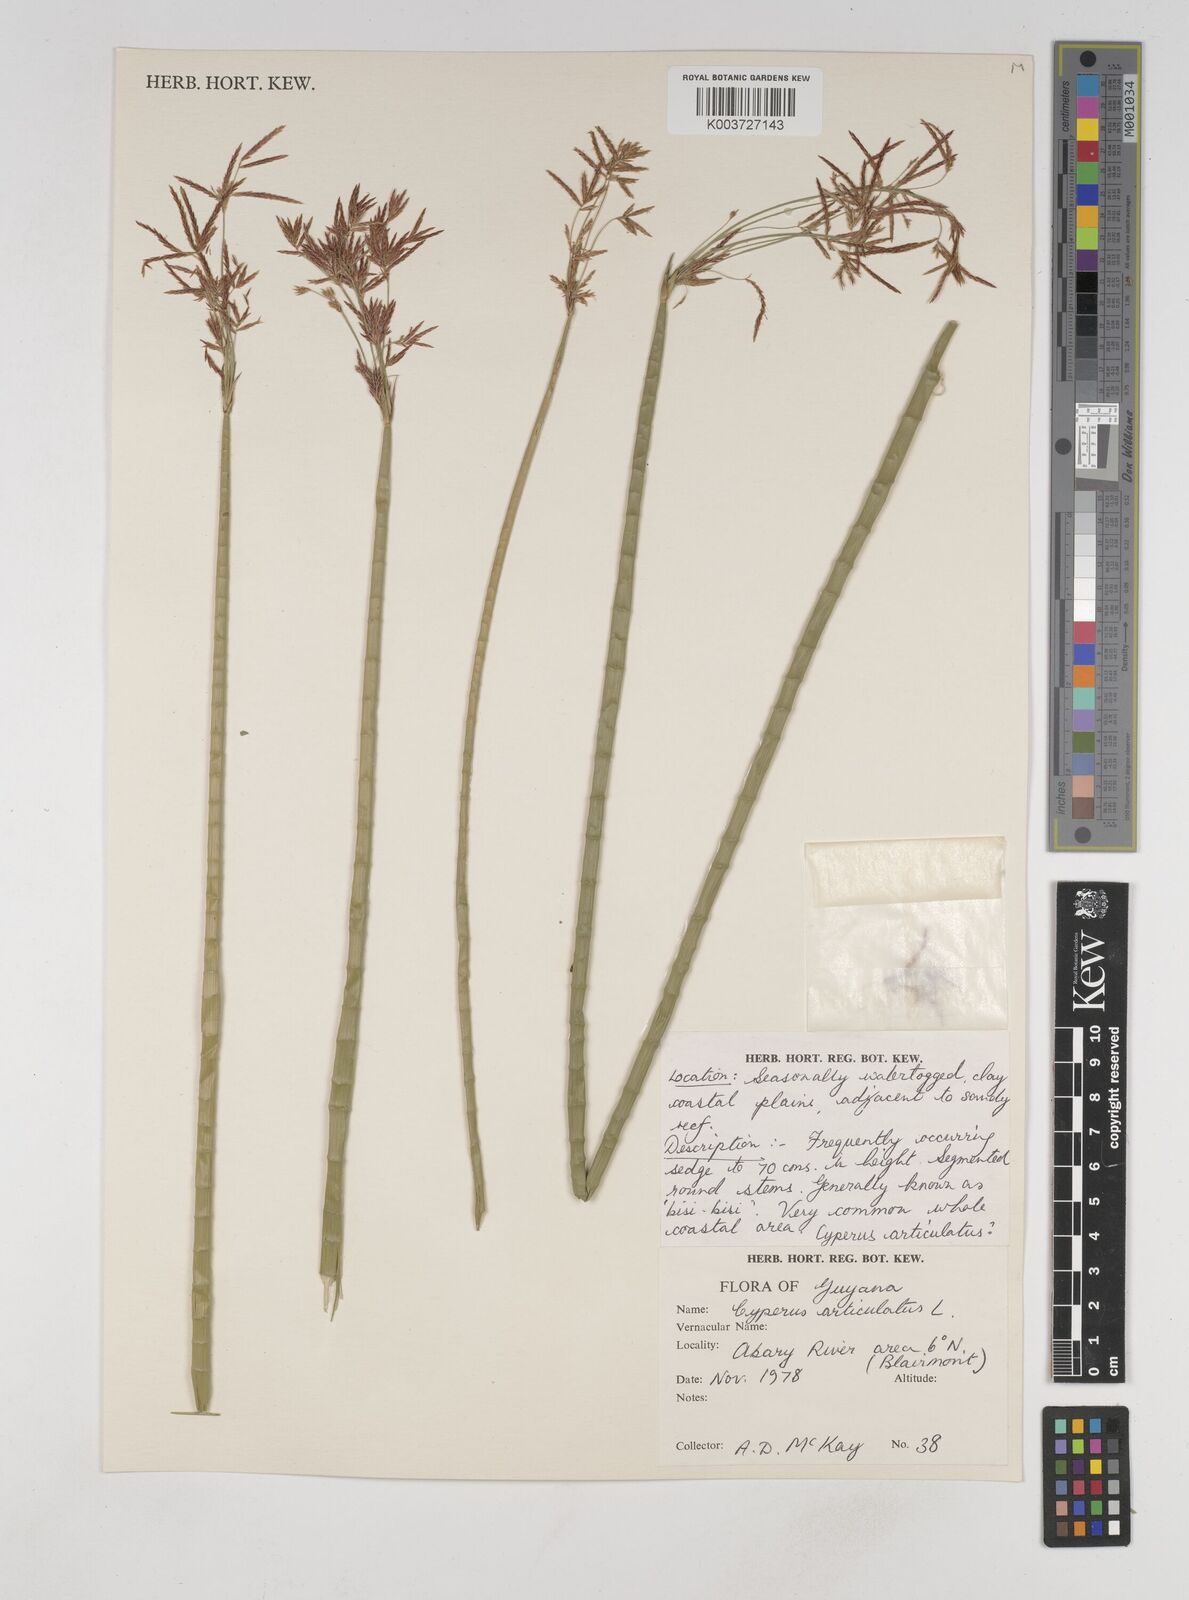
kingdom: Plantae
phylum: Tracheophyta
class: Liliopsida
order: Poales
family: Cyperaceae
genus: Cyperus
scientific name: Cyperus articulatus
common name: Jointed flatsedge
